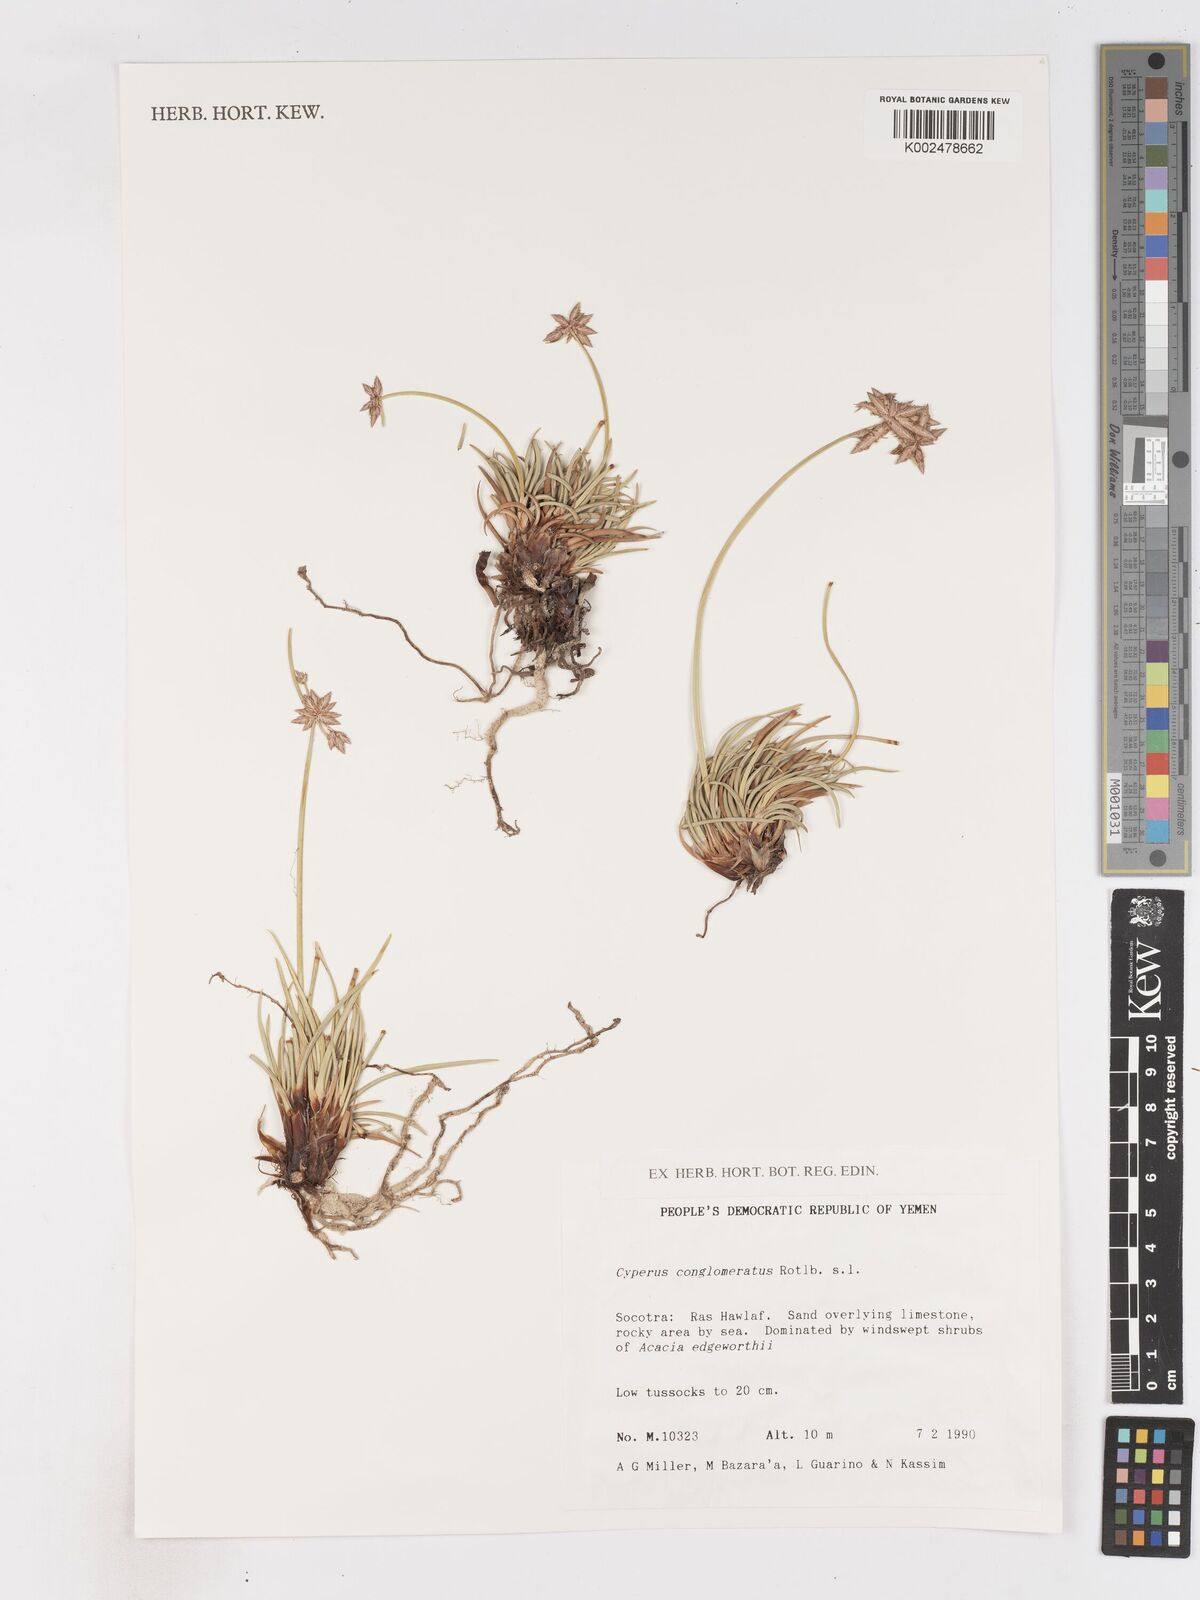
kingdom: Plantae
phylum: Tracheophyta
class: Liliopsida
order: Poales
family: Cyperaceae
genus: Cyperus
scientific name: Cyperus conglomeratus
